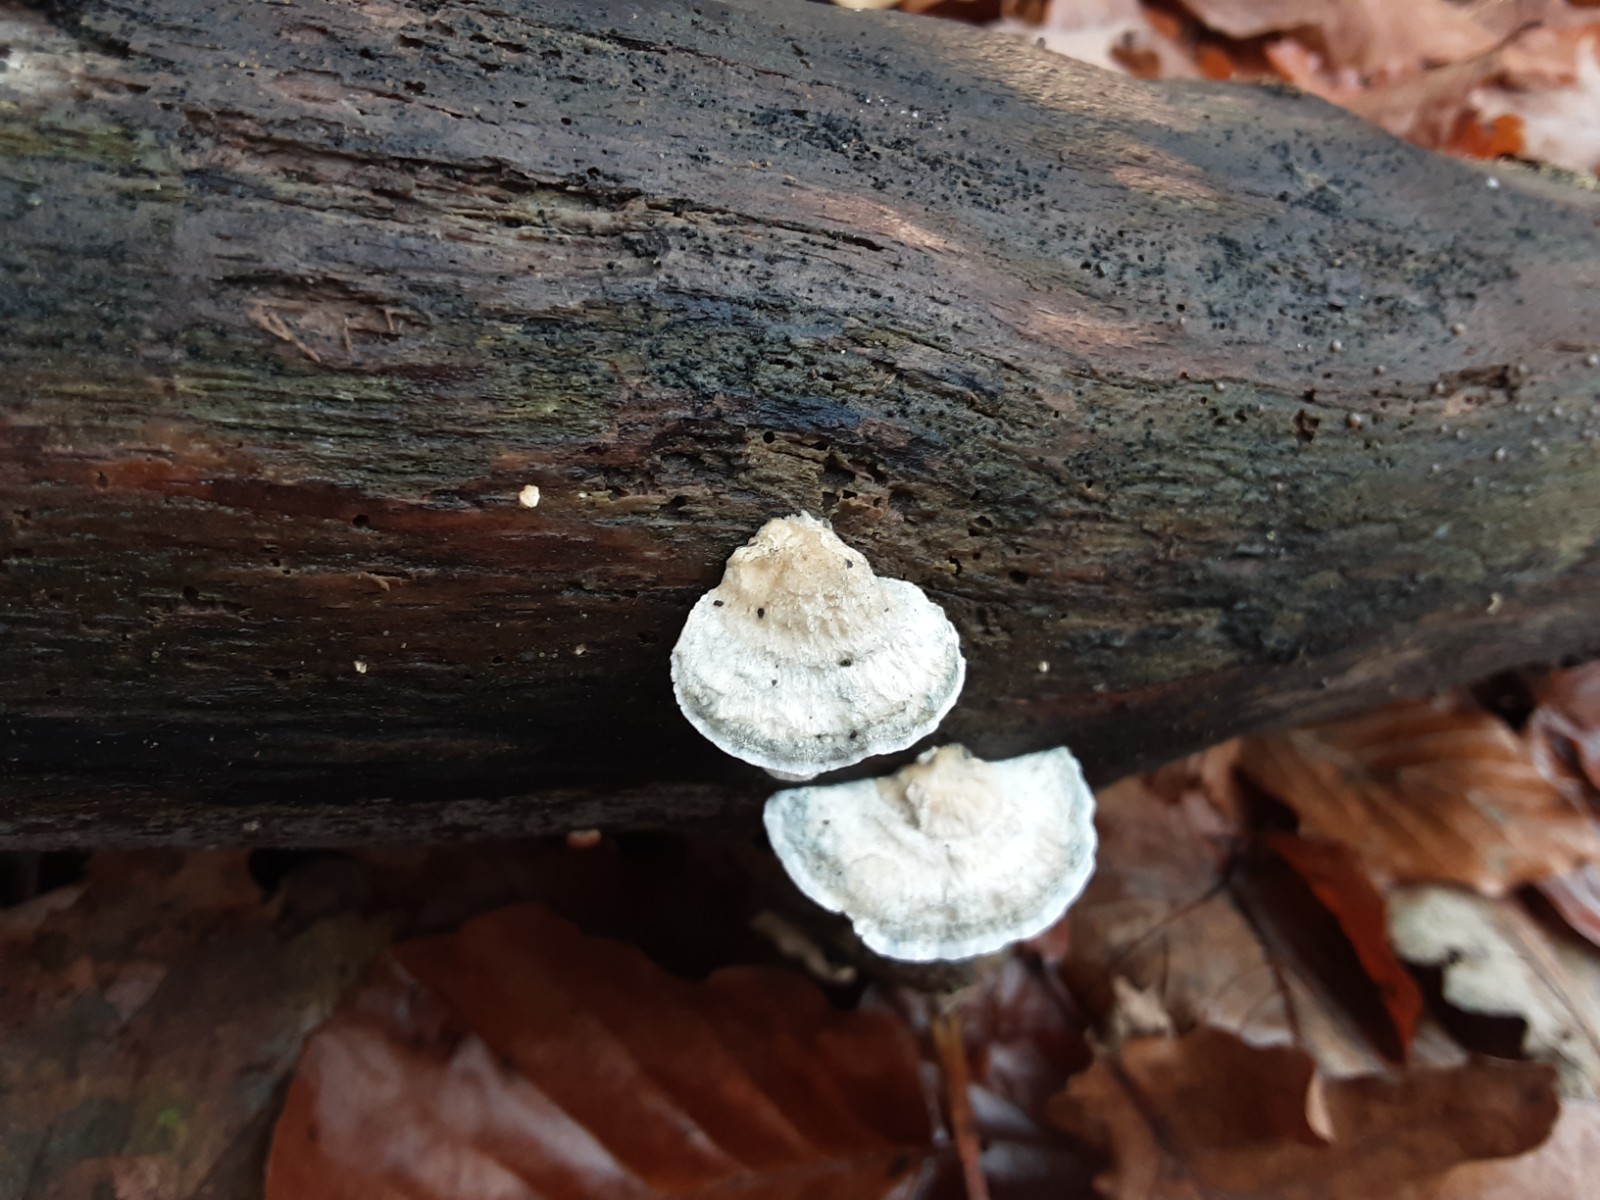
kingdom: Fungi
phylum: Basidiomycota
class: Agaricomycetes
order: Polyporales
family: Polyporaceae
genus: Cyanosporus
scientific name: Cyanosporus alni
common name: blegblå kødporesvamp
